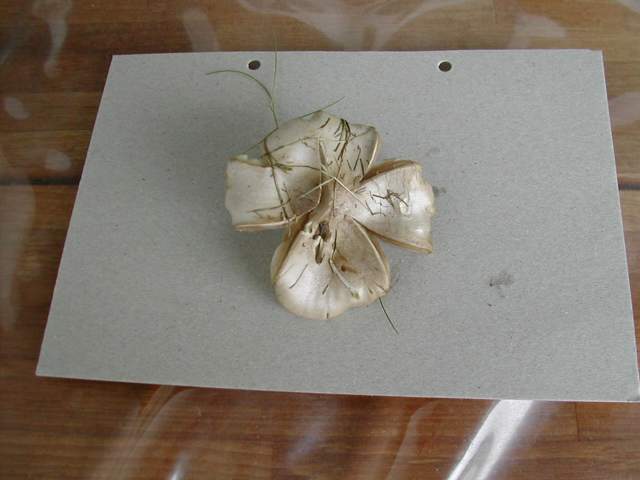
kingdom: Fungi
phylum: Basidiomycota
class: Agaricomycetes
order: Agaricales
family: Tricholomataceae
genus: Melanoleuca
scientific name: Melanoleuca
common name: munkehat
